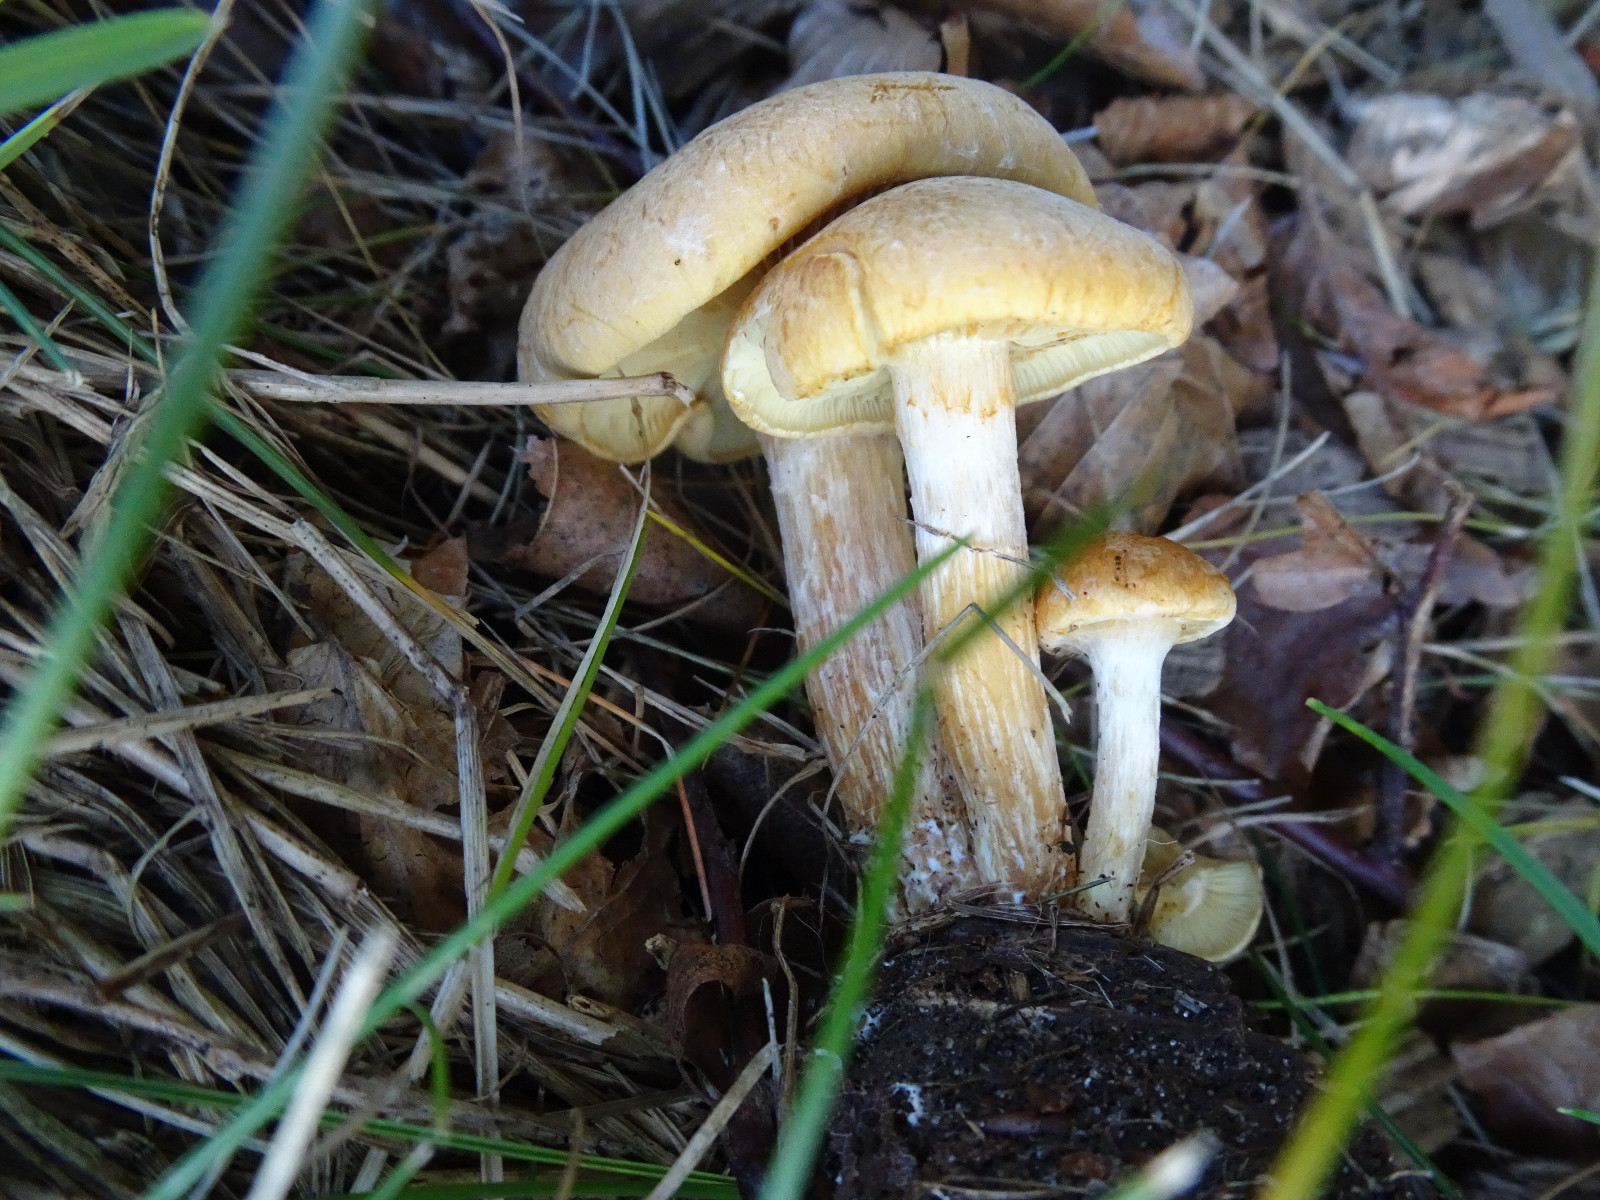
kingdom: Fungi
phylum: Basidiomycota
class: Agaricomycetes
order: Agaricales
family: Hymenogastraceae
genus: Gymnopilus
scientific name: Gymnopilus
